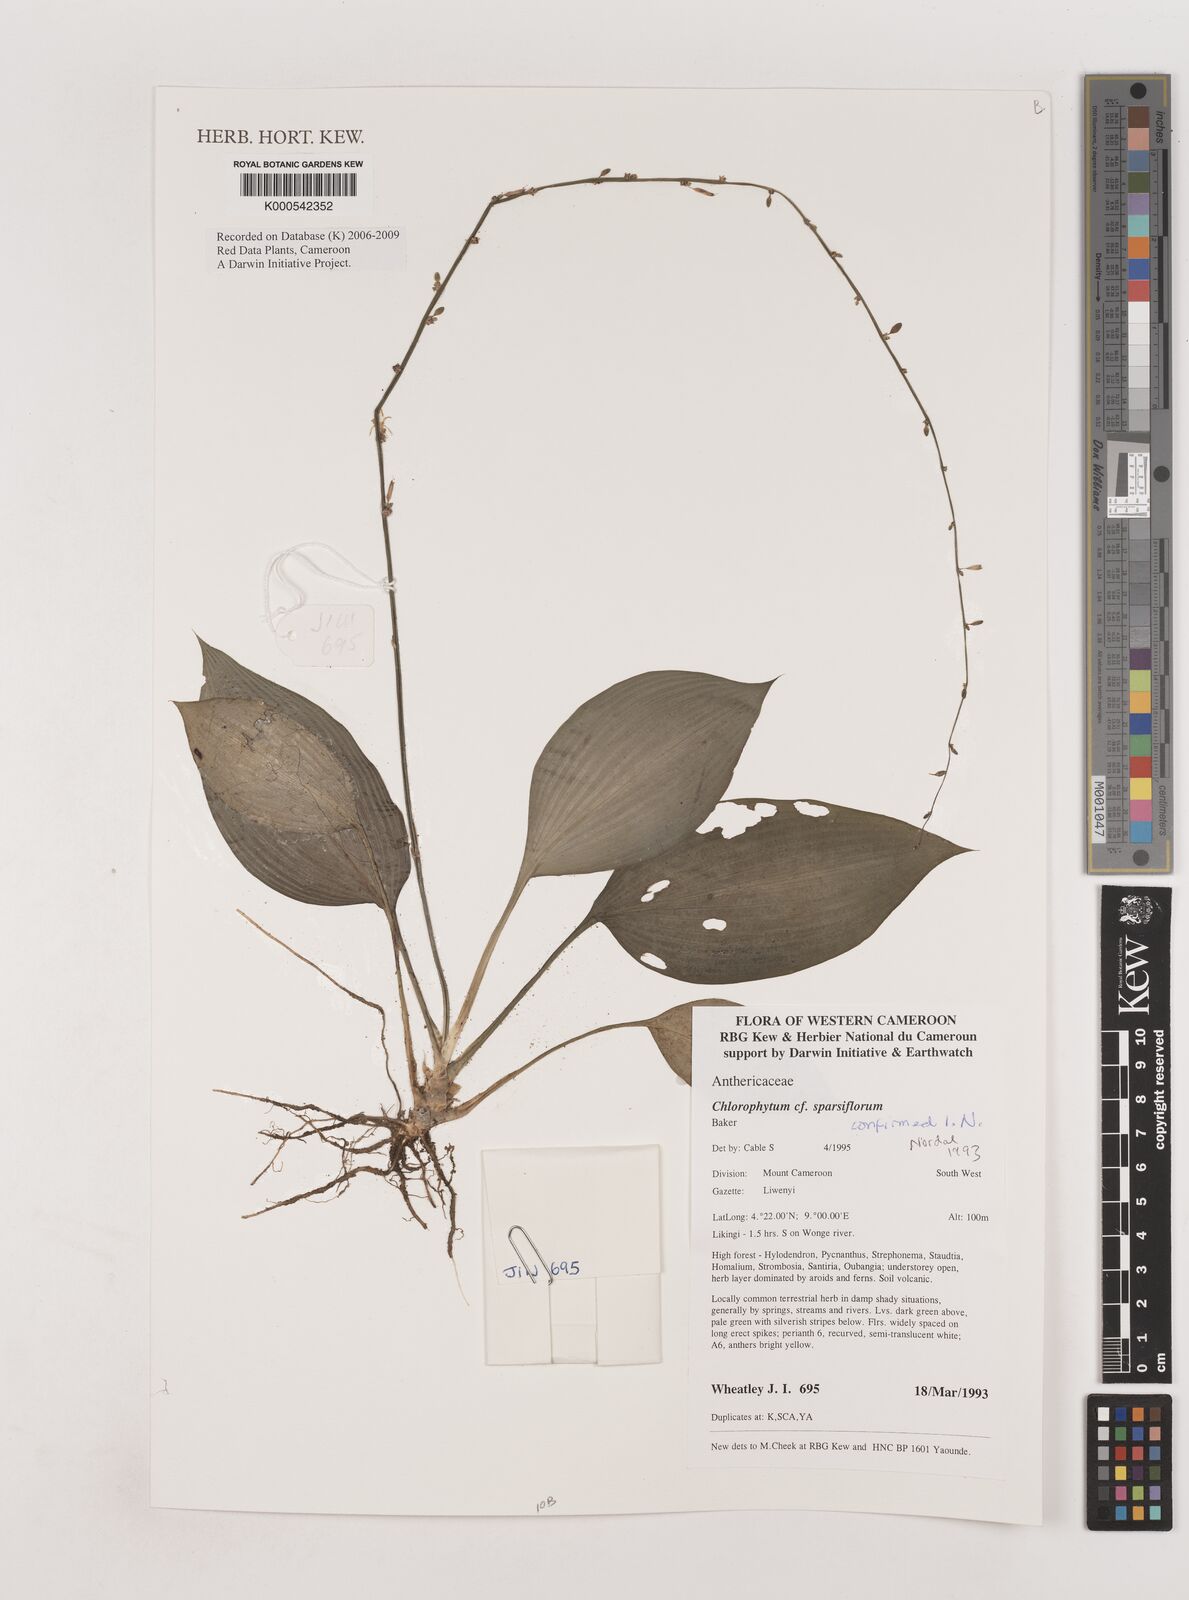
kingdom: Plantae
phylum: Tracheophyta
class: Liliopsida
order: Asparagales
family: Asparagaceae
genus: Chlorophytum
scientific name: Chlorophytum sparsiflorum
